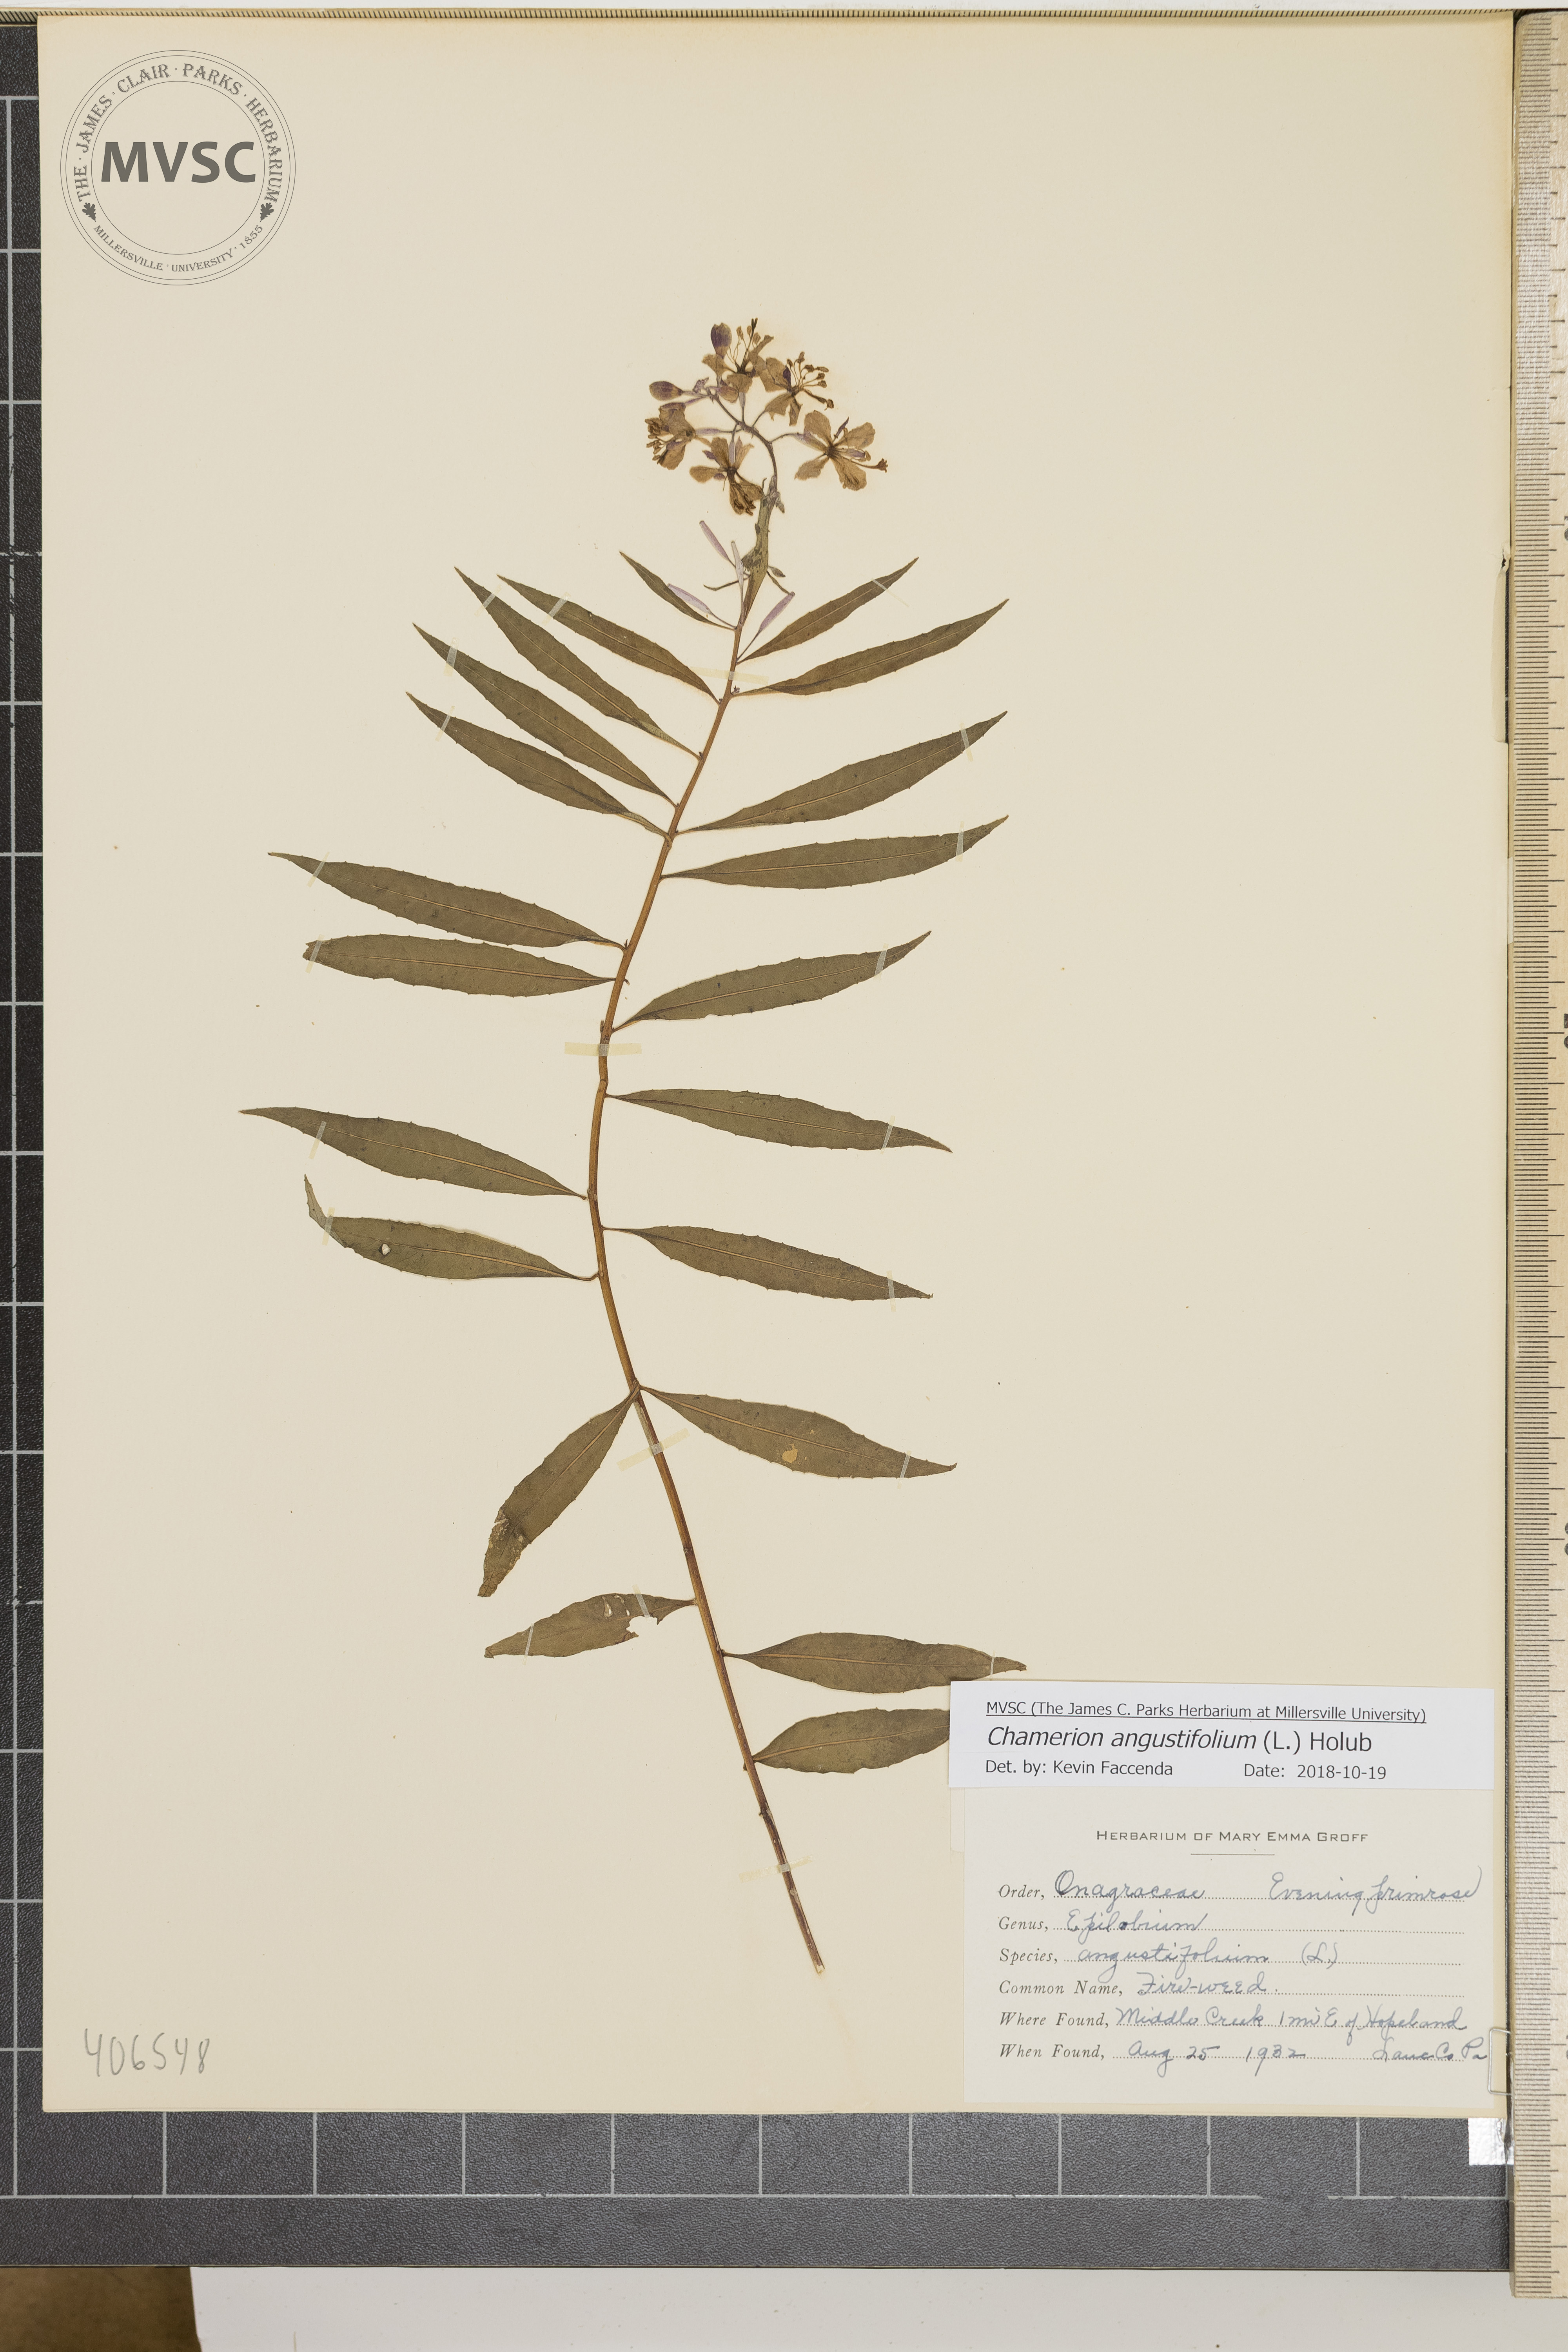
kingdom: Plantae
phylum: Tracheophyta
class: Magnoliopsida
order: Myrtales
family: Onagraceae
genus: Chamaenerion
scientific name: Chamaenerion angustifolium
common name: Fire-weed
